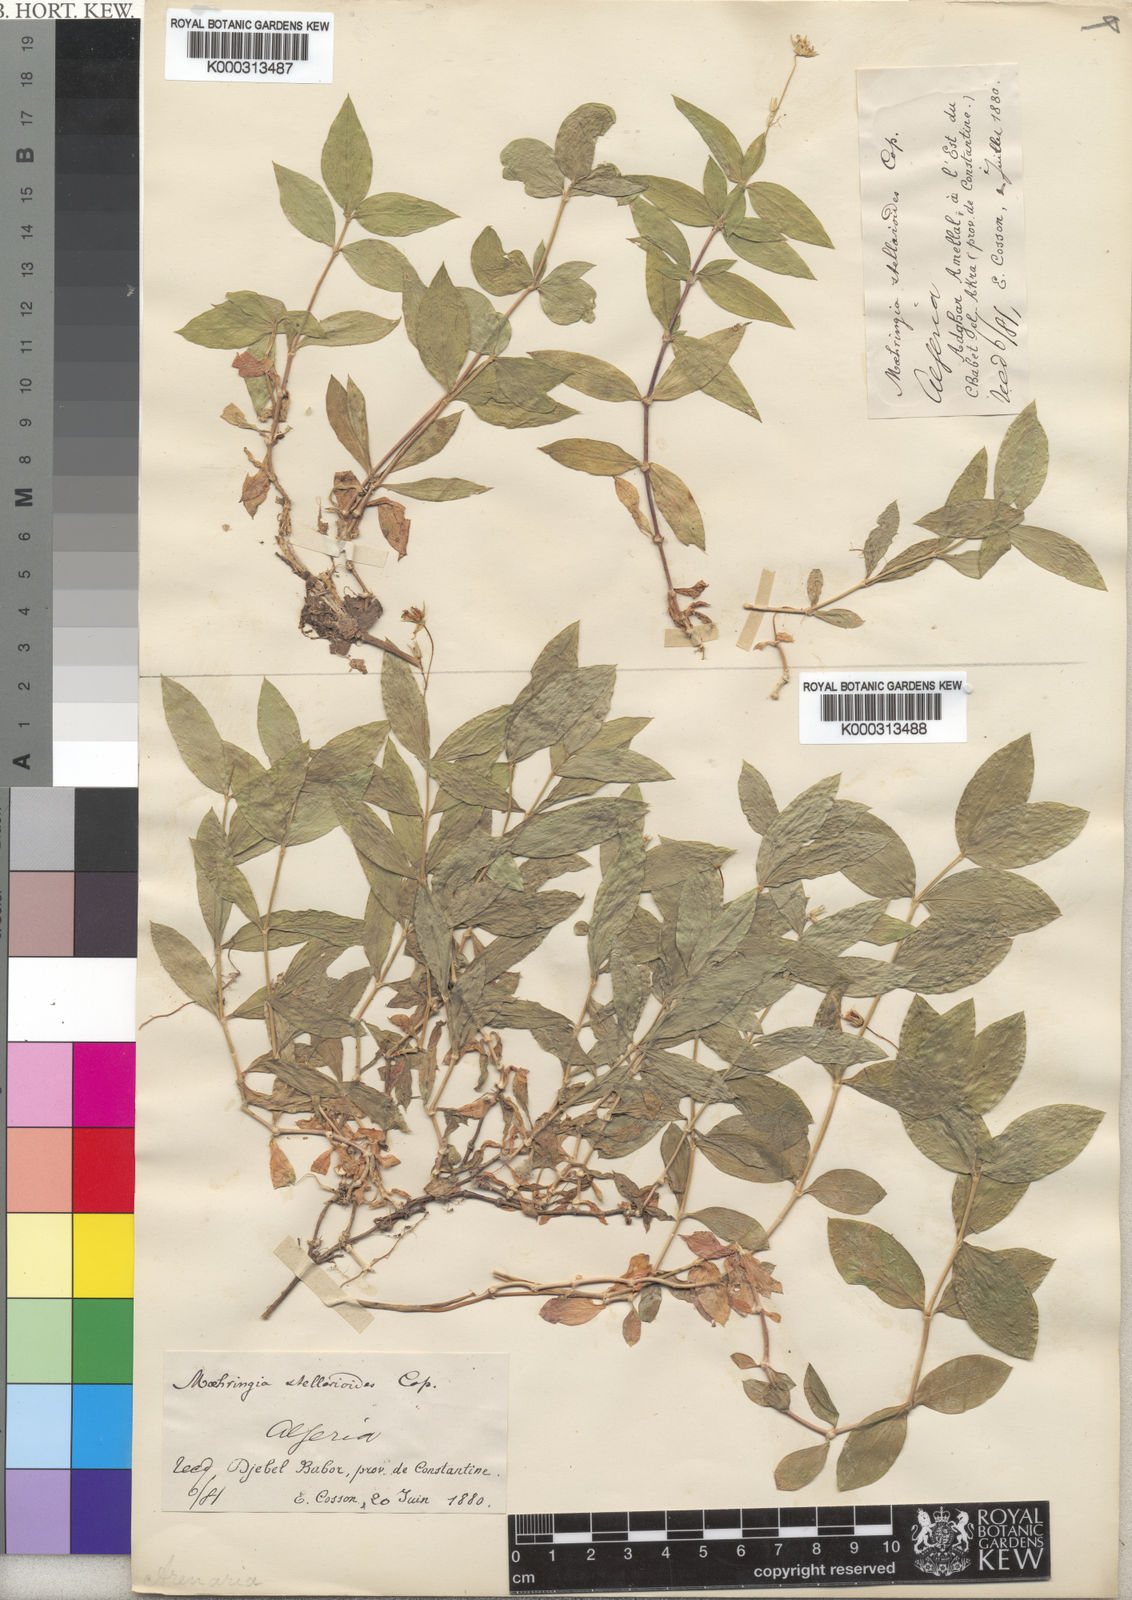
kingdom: Plantae
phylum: Tracheophyta
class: Magnoliopsida
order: Caryophyllales
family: Caryophyllaceae
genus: Moehringia
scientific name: Moehringia stellarioides
